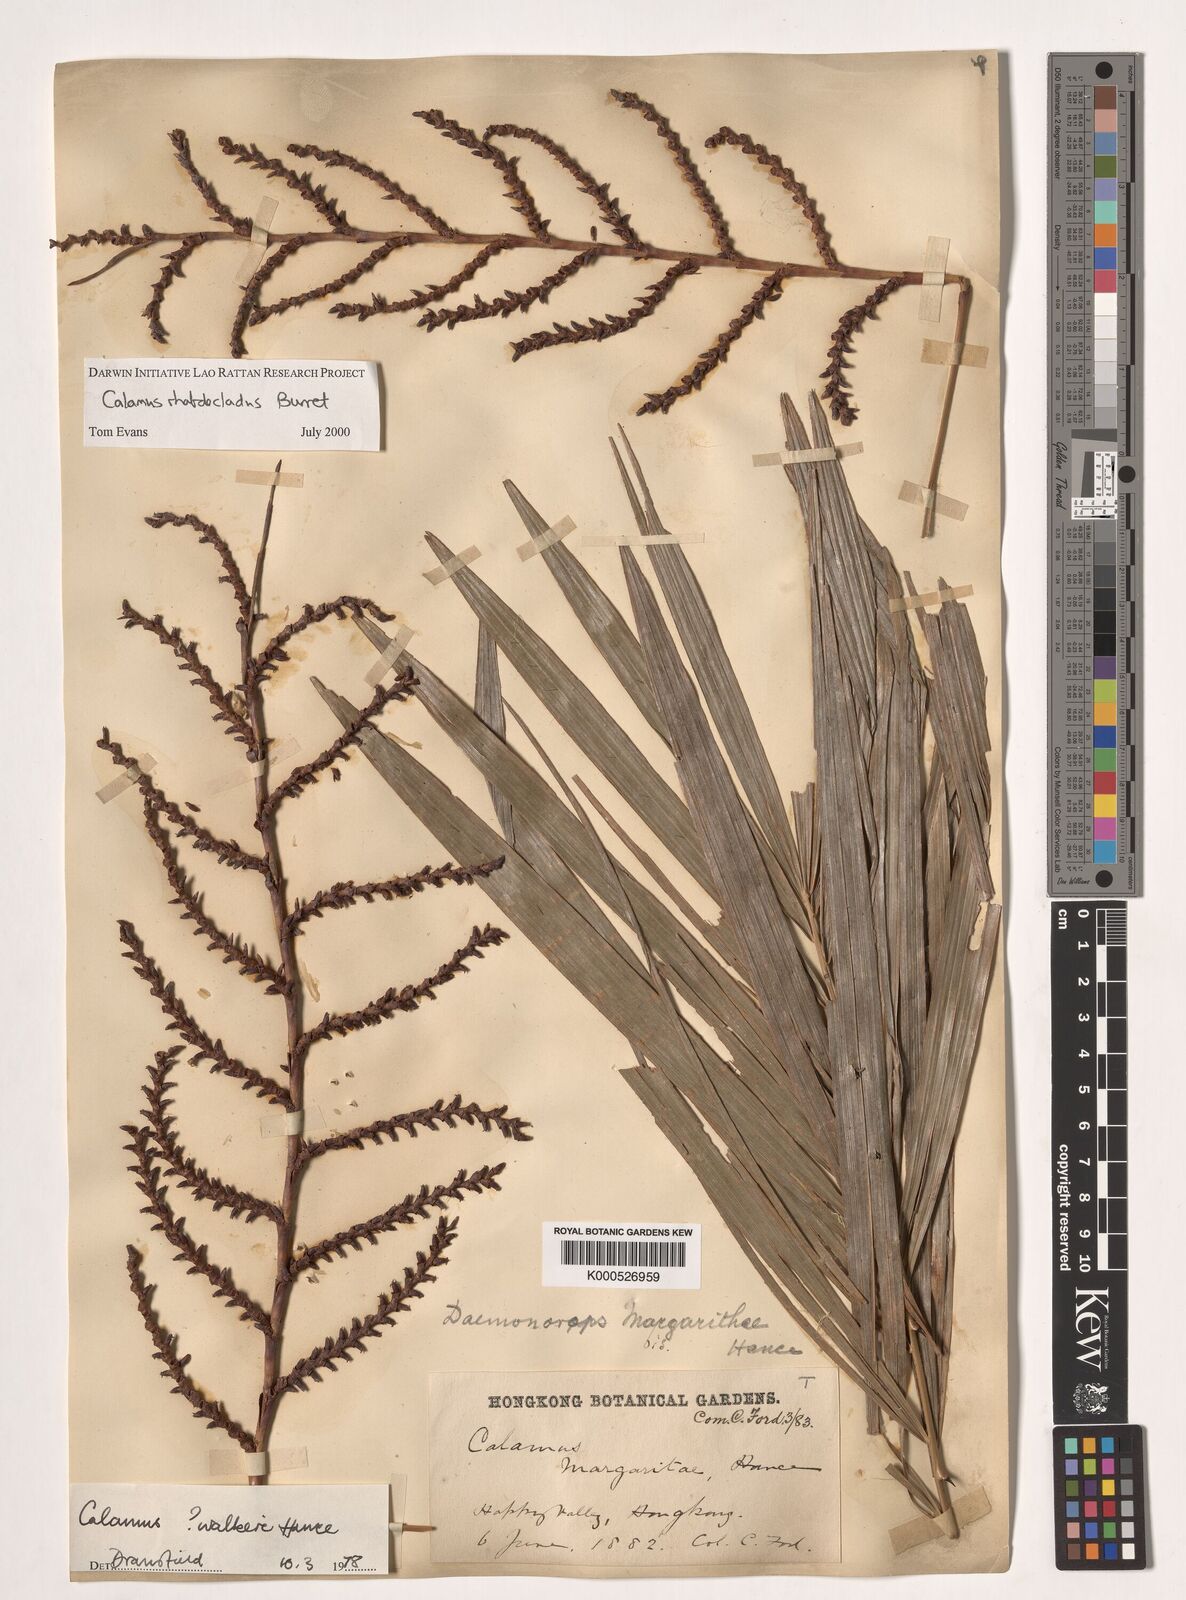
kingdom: Plantae
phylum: Tracheophyta
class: Liliopsida
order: Arecales
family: Arecaceae
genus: Calamus
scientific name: Calamus rhabdocladus
